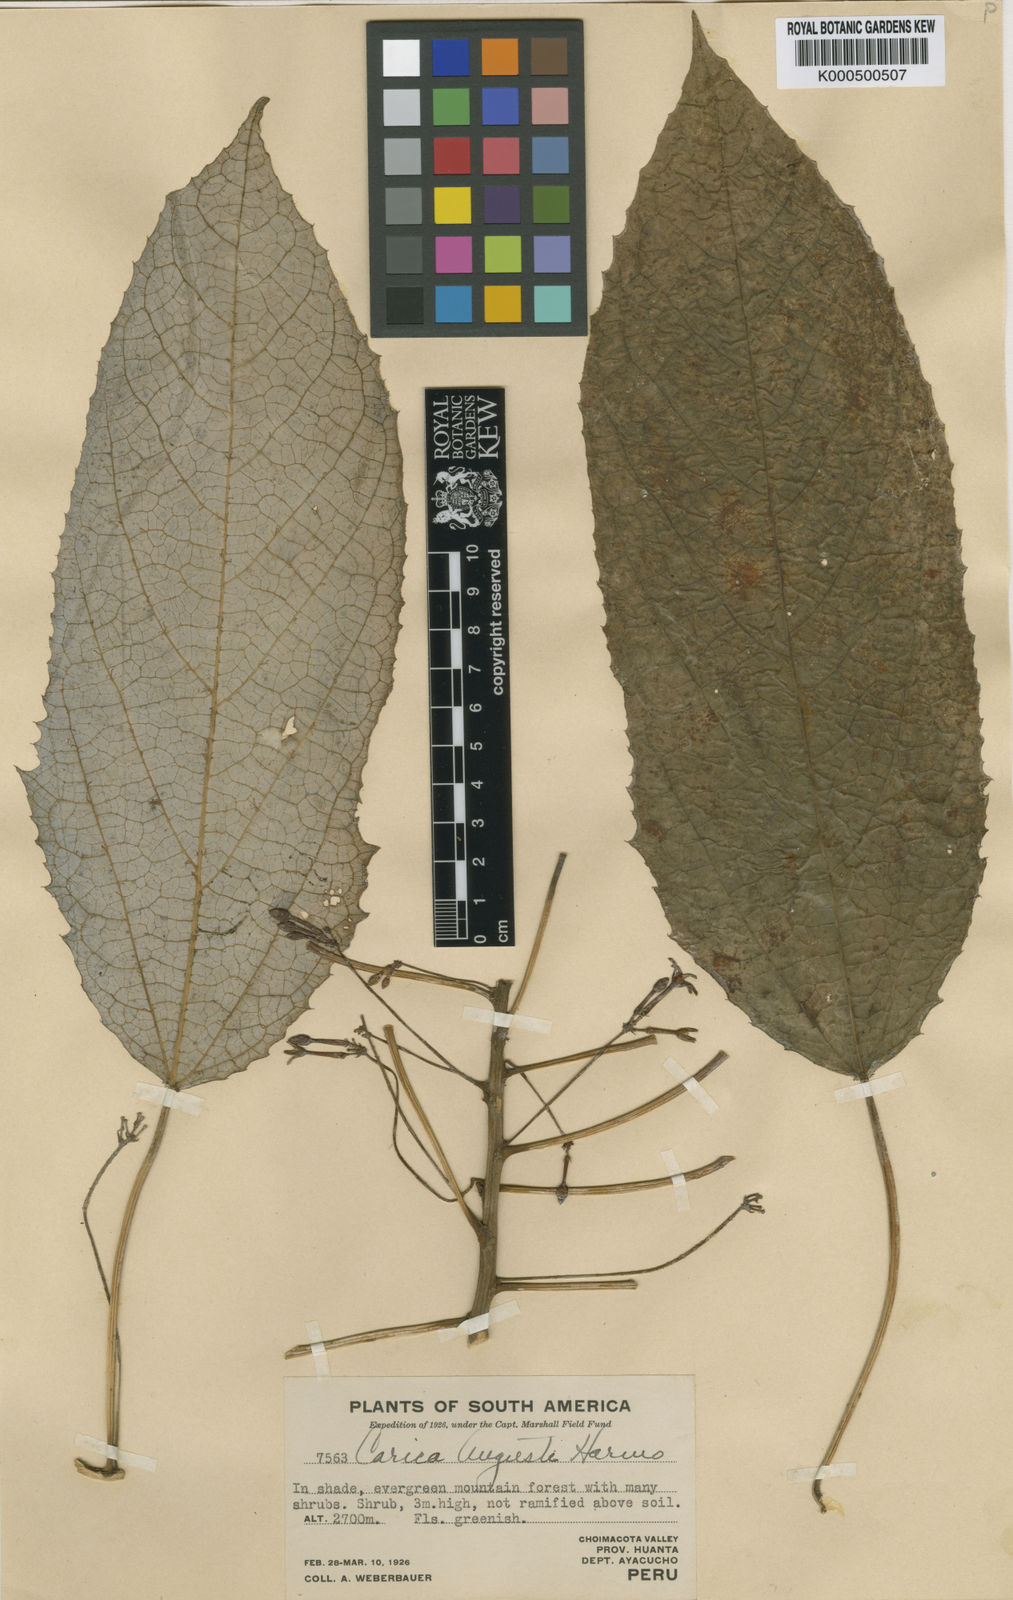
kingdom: Plantae
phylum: Tracheophyta
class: Magnoliopsida
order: Brassicales
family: Caricaceae
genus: Vasconcellea
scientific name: Vasconcellea weberbaueri
